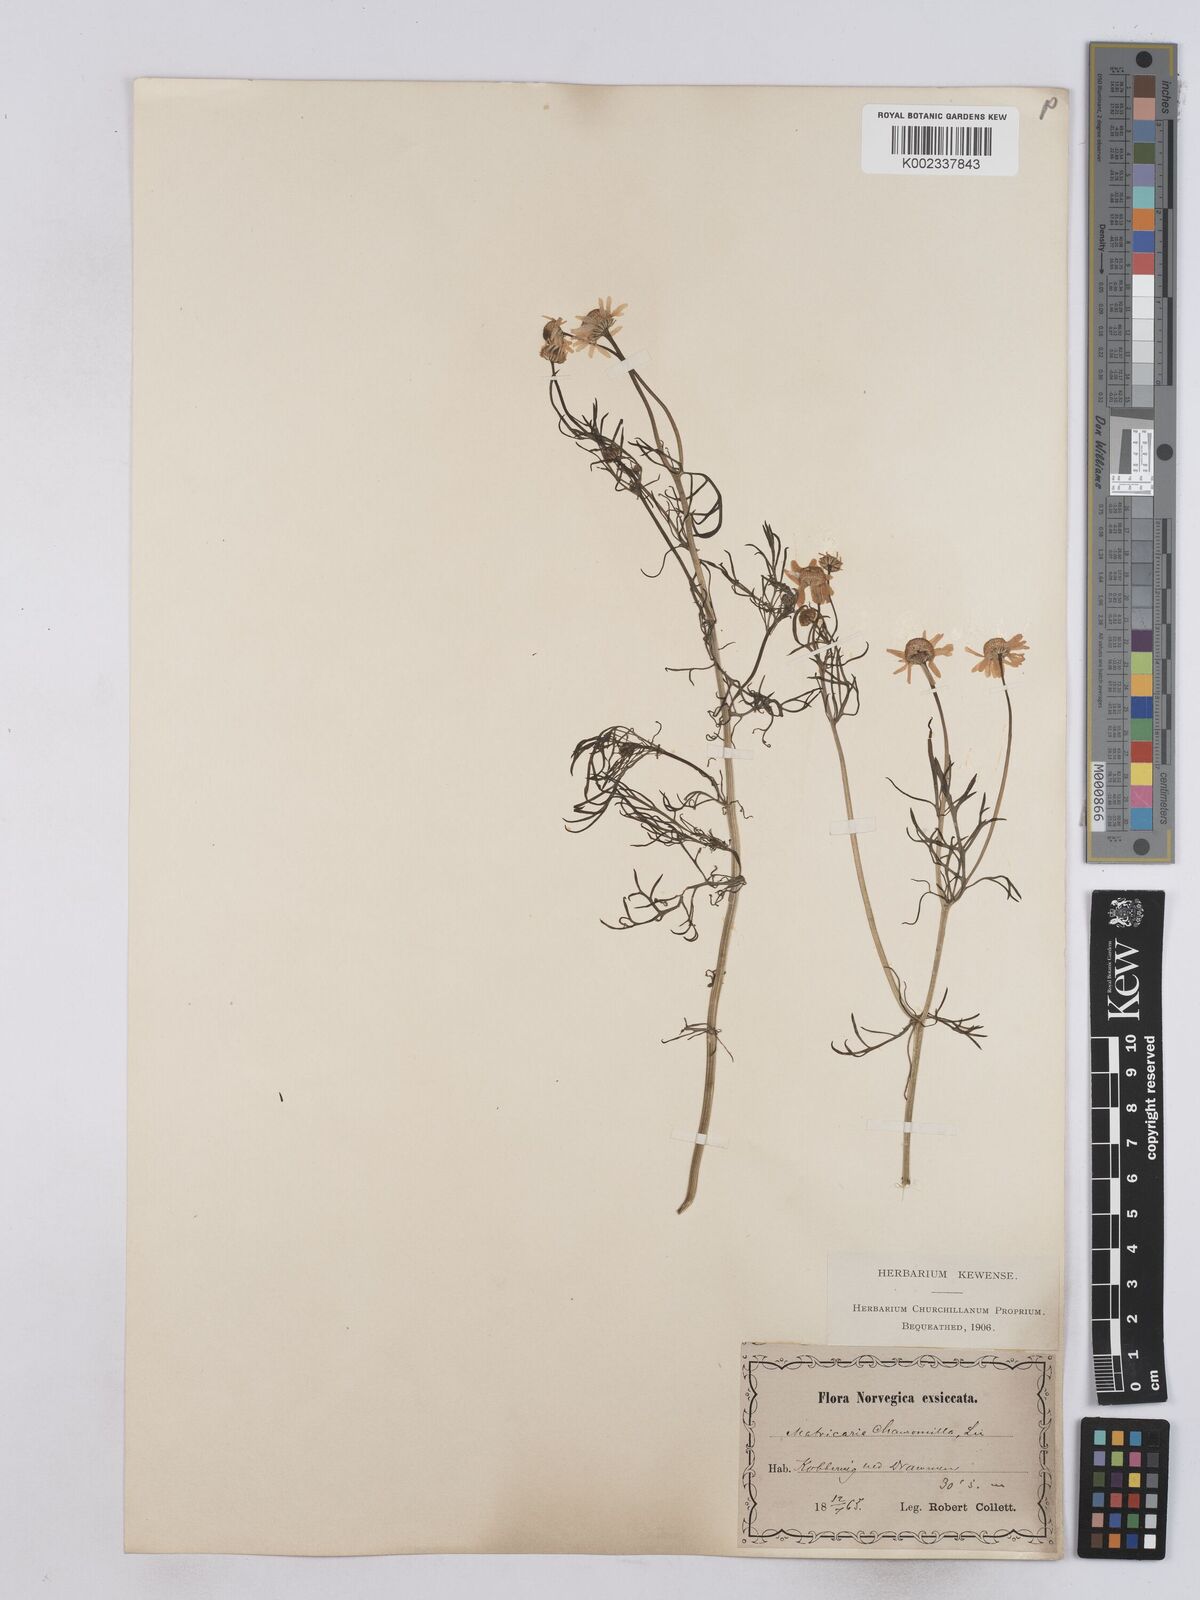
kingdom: Plantae
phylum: Tracheophyta
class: Magnoliopsida
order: Asterales
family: Asteraceae
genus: Matricaria
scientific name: Matricaria chamomilla
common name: Scented mayweed
